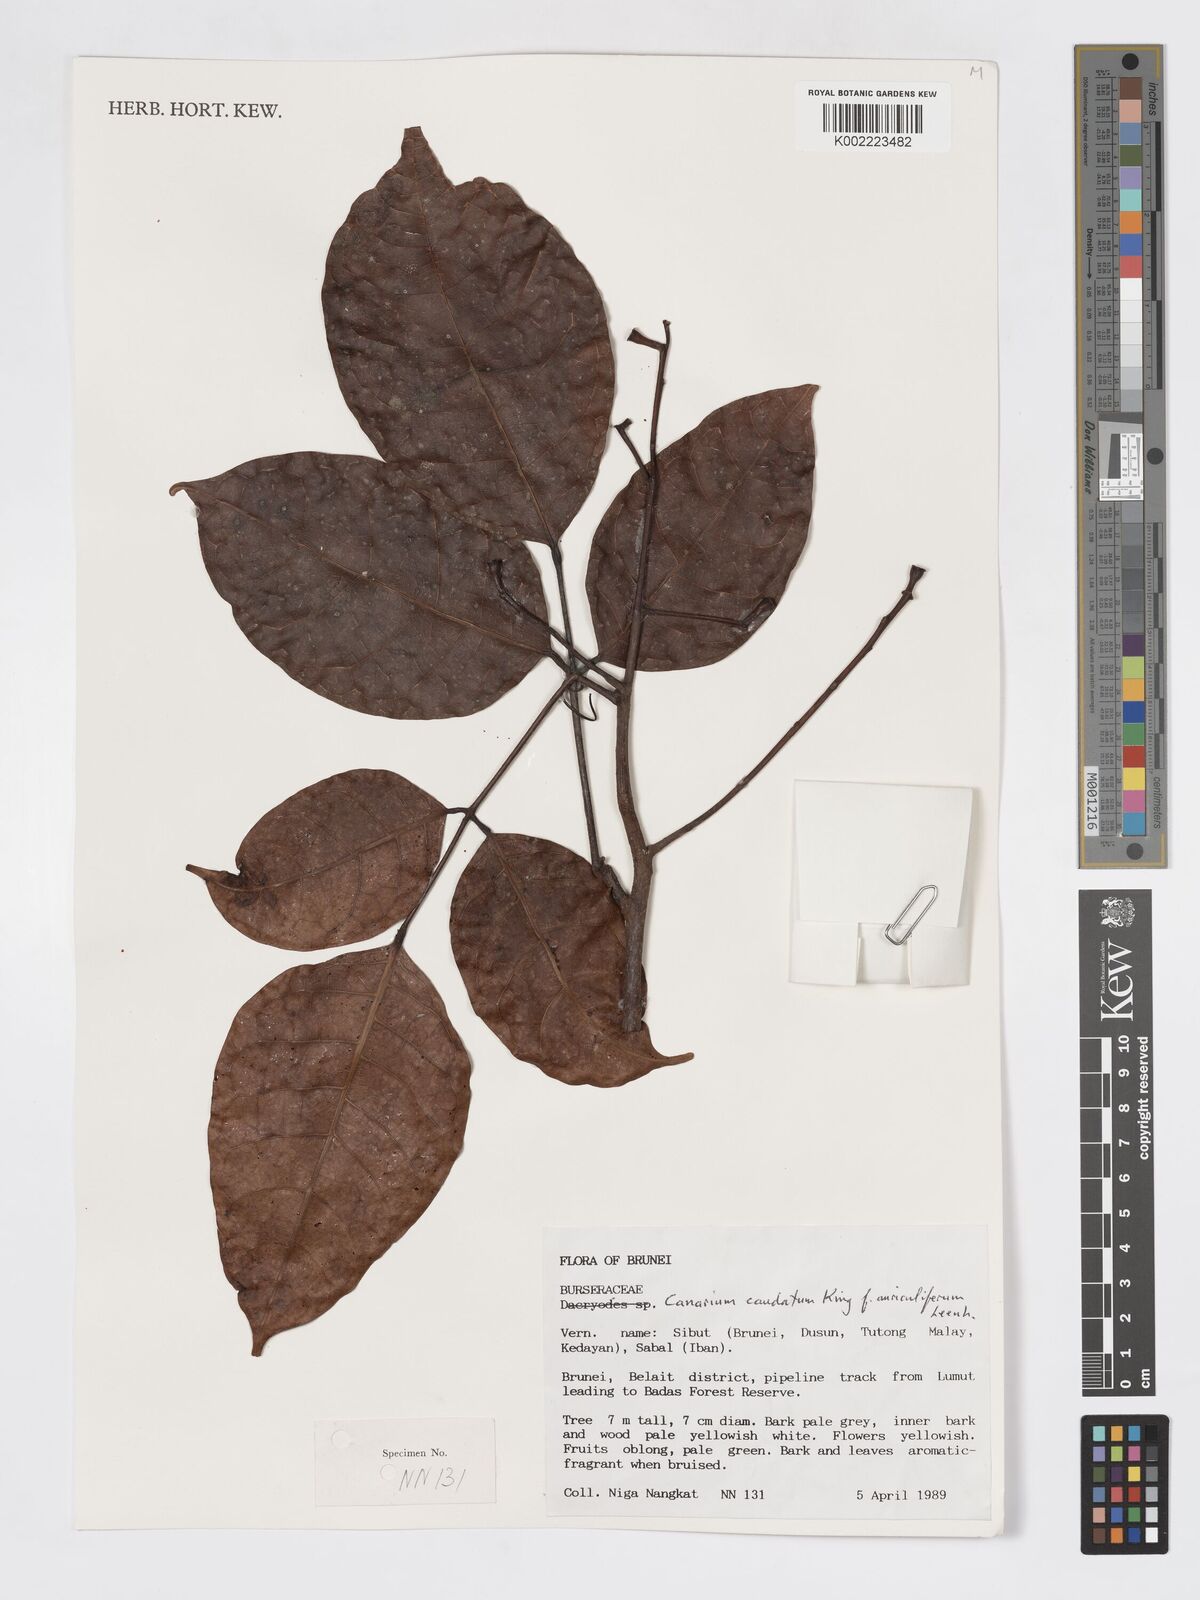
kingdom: Plantae
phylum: Tracheophyta
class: Magnoliopsida
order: Sapindales
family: Burseraceae
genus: Canarium
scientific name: Canarium caudatum
